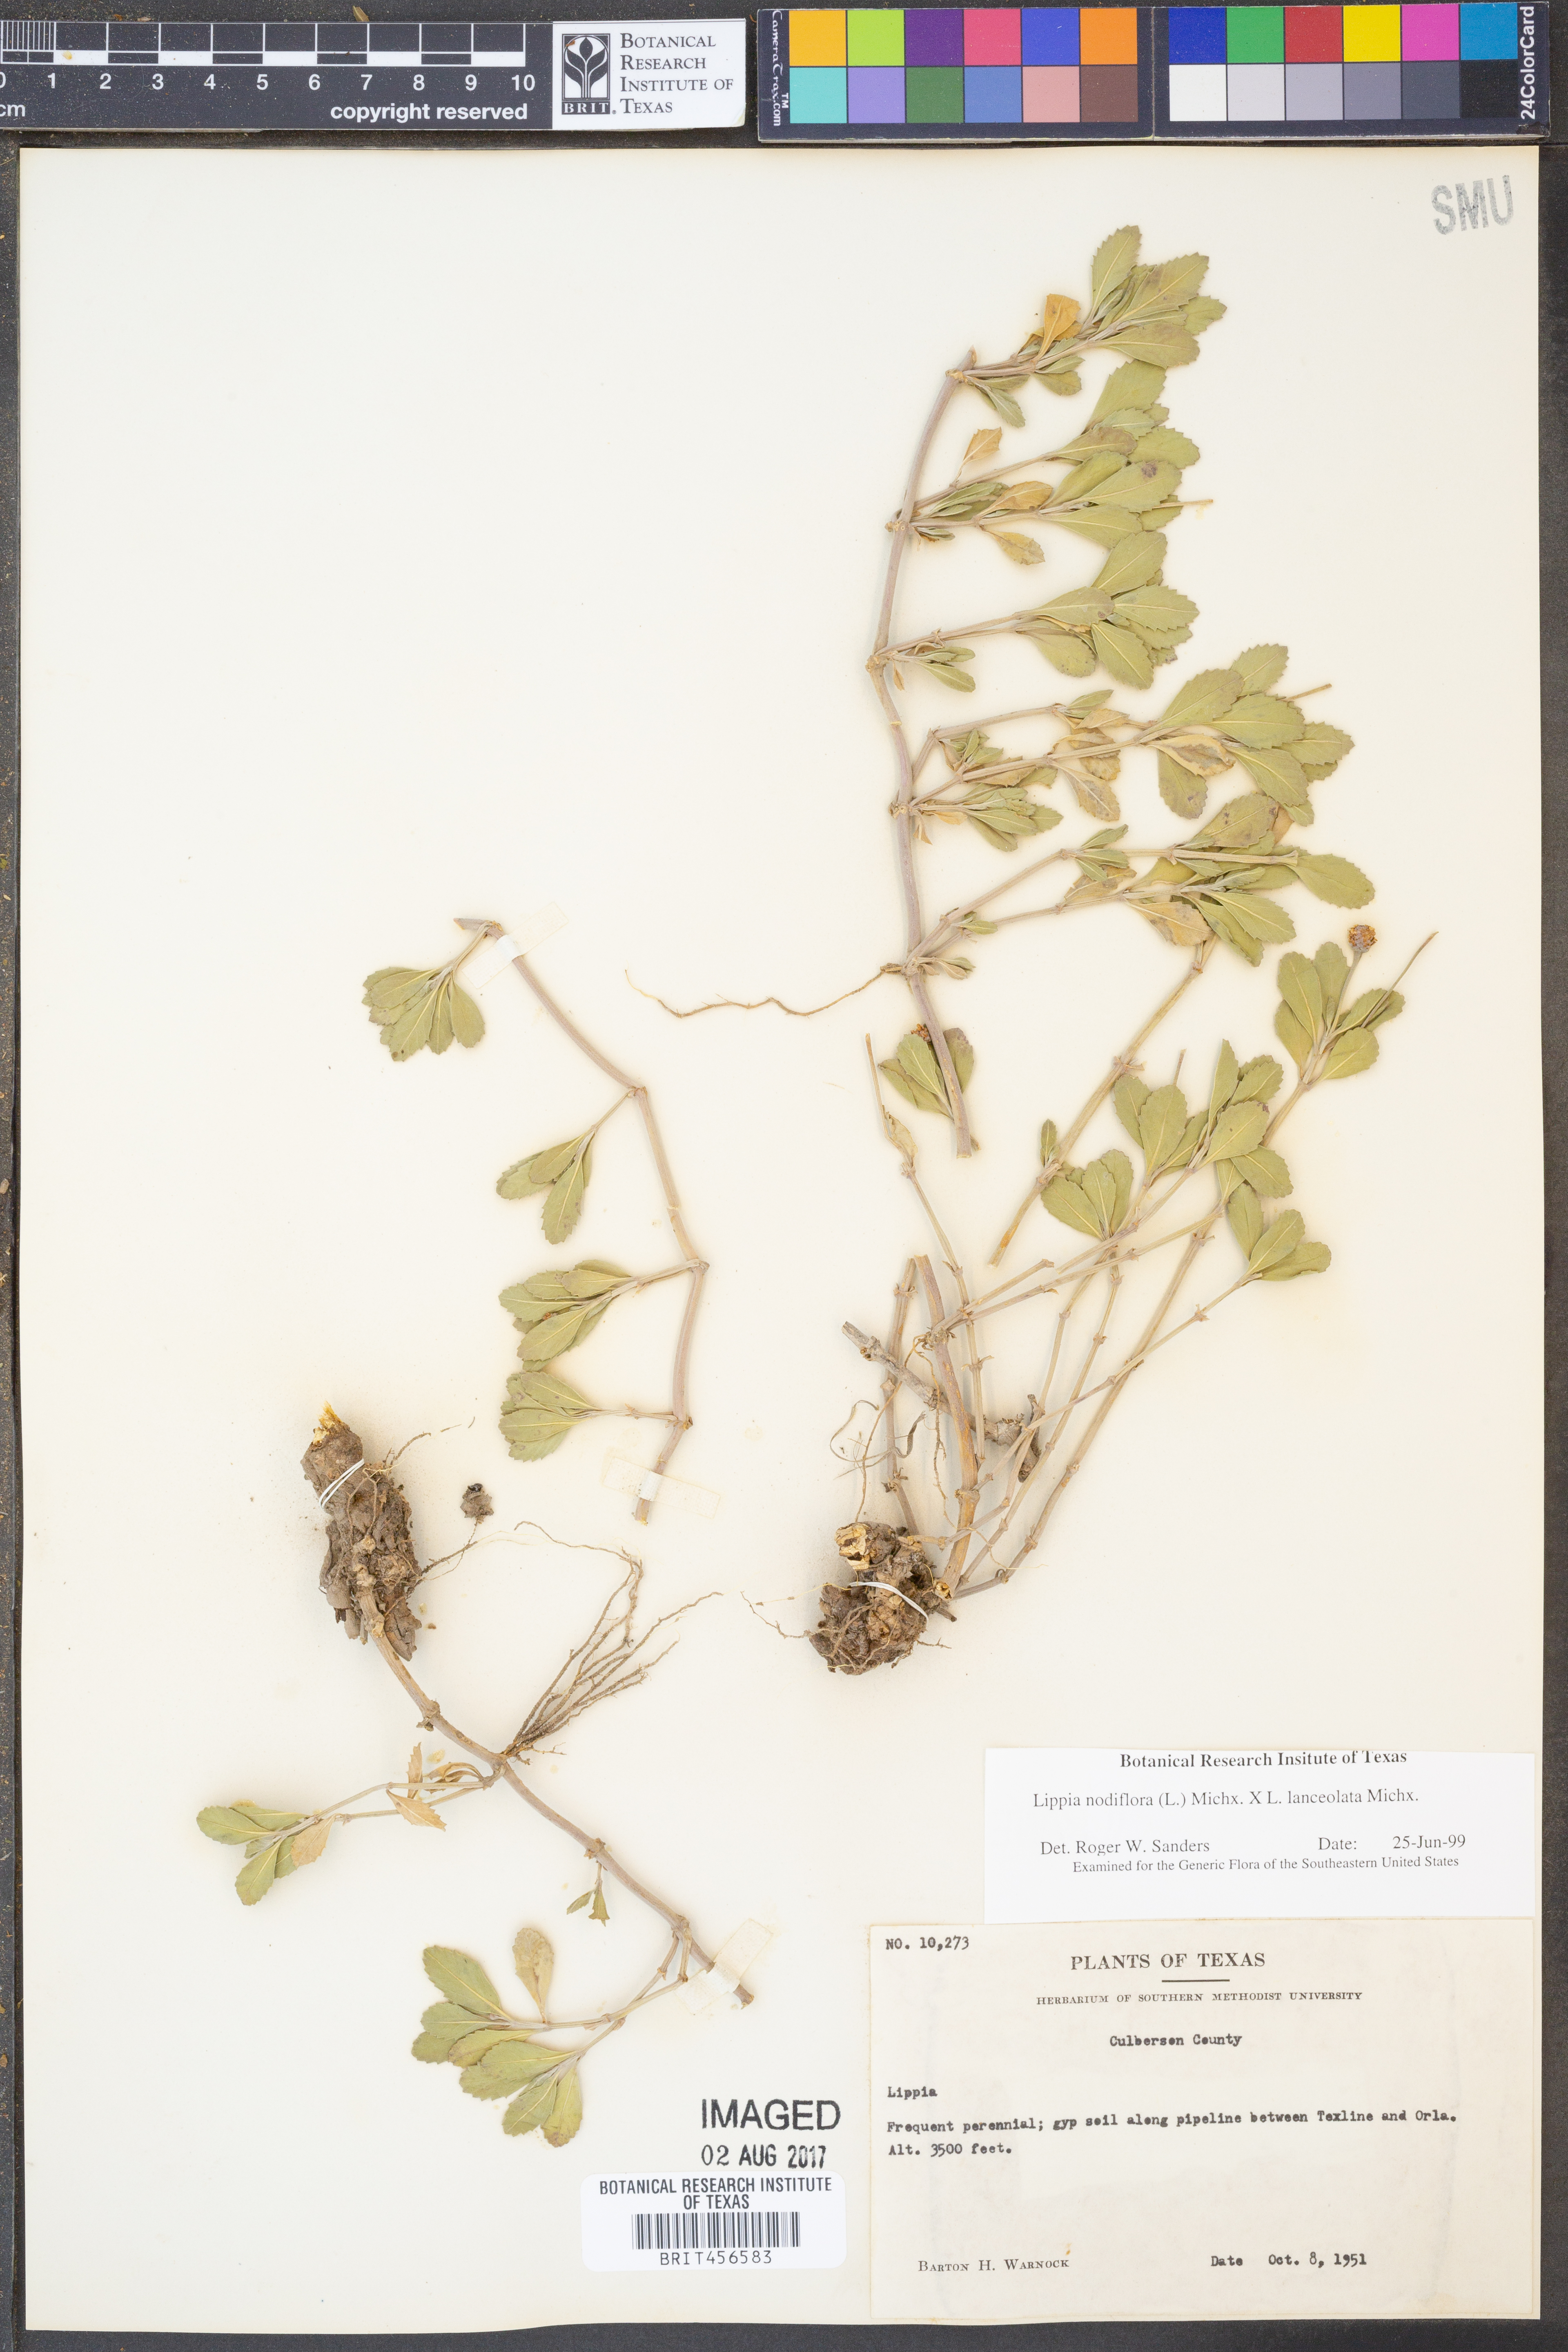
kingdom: Plantae
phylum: Tracheophyta
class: Magnoliopsida
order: Lamiales
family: Verbenaceae
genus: Phyla
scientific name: Phyla nodiflora
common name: Frogfruit
